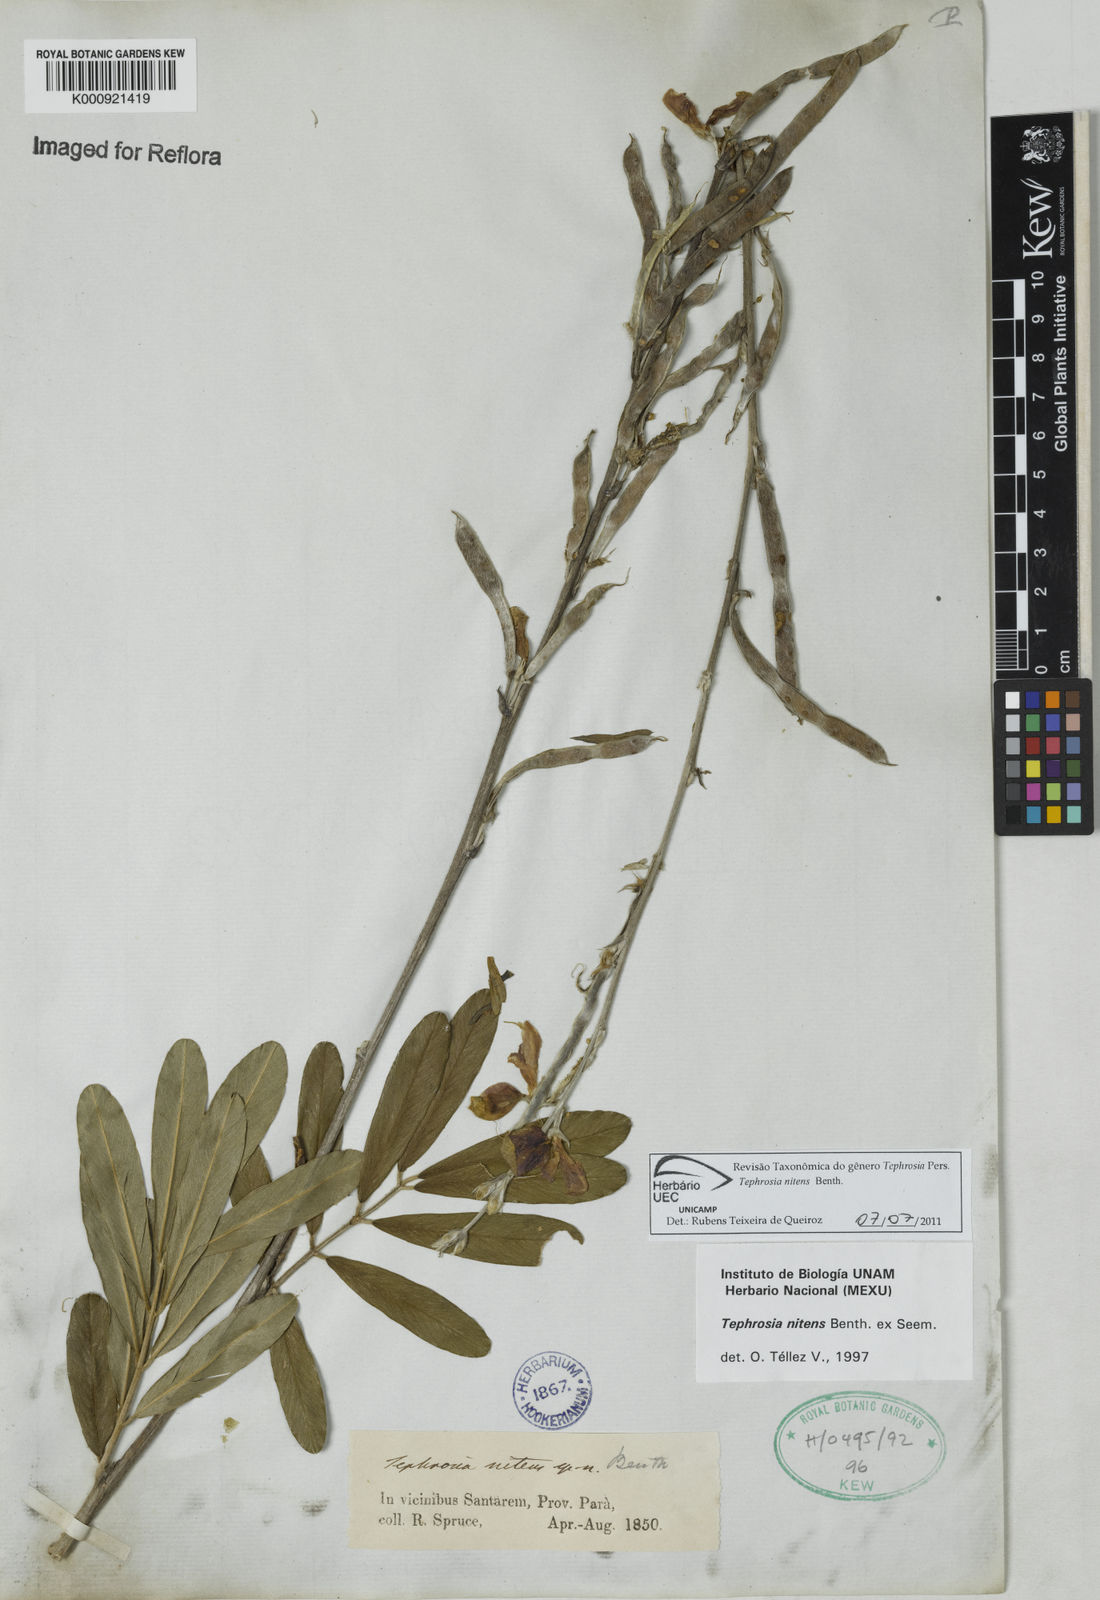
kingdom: Plantae
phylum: Tracheophyta
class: Magnoliopsida
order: Fabales
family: Fabaceae
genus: Tephrosia
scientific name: Tephrosia nitens
